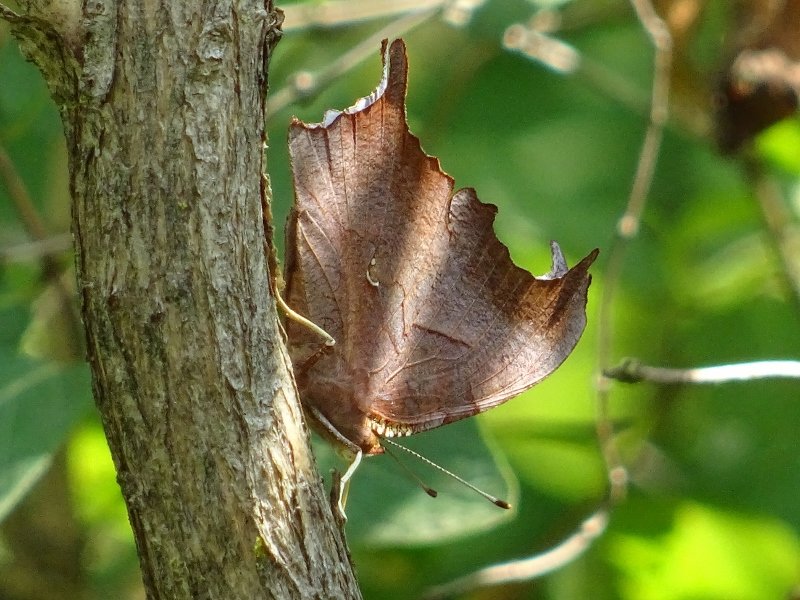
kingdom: Animalia
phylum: Arthropoda
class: Insecta
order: Lepidoptera
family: Nymphalidae
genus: Polygonia
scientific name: Polygonia interrogationis
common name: Question Mark
